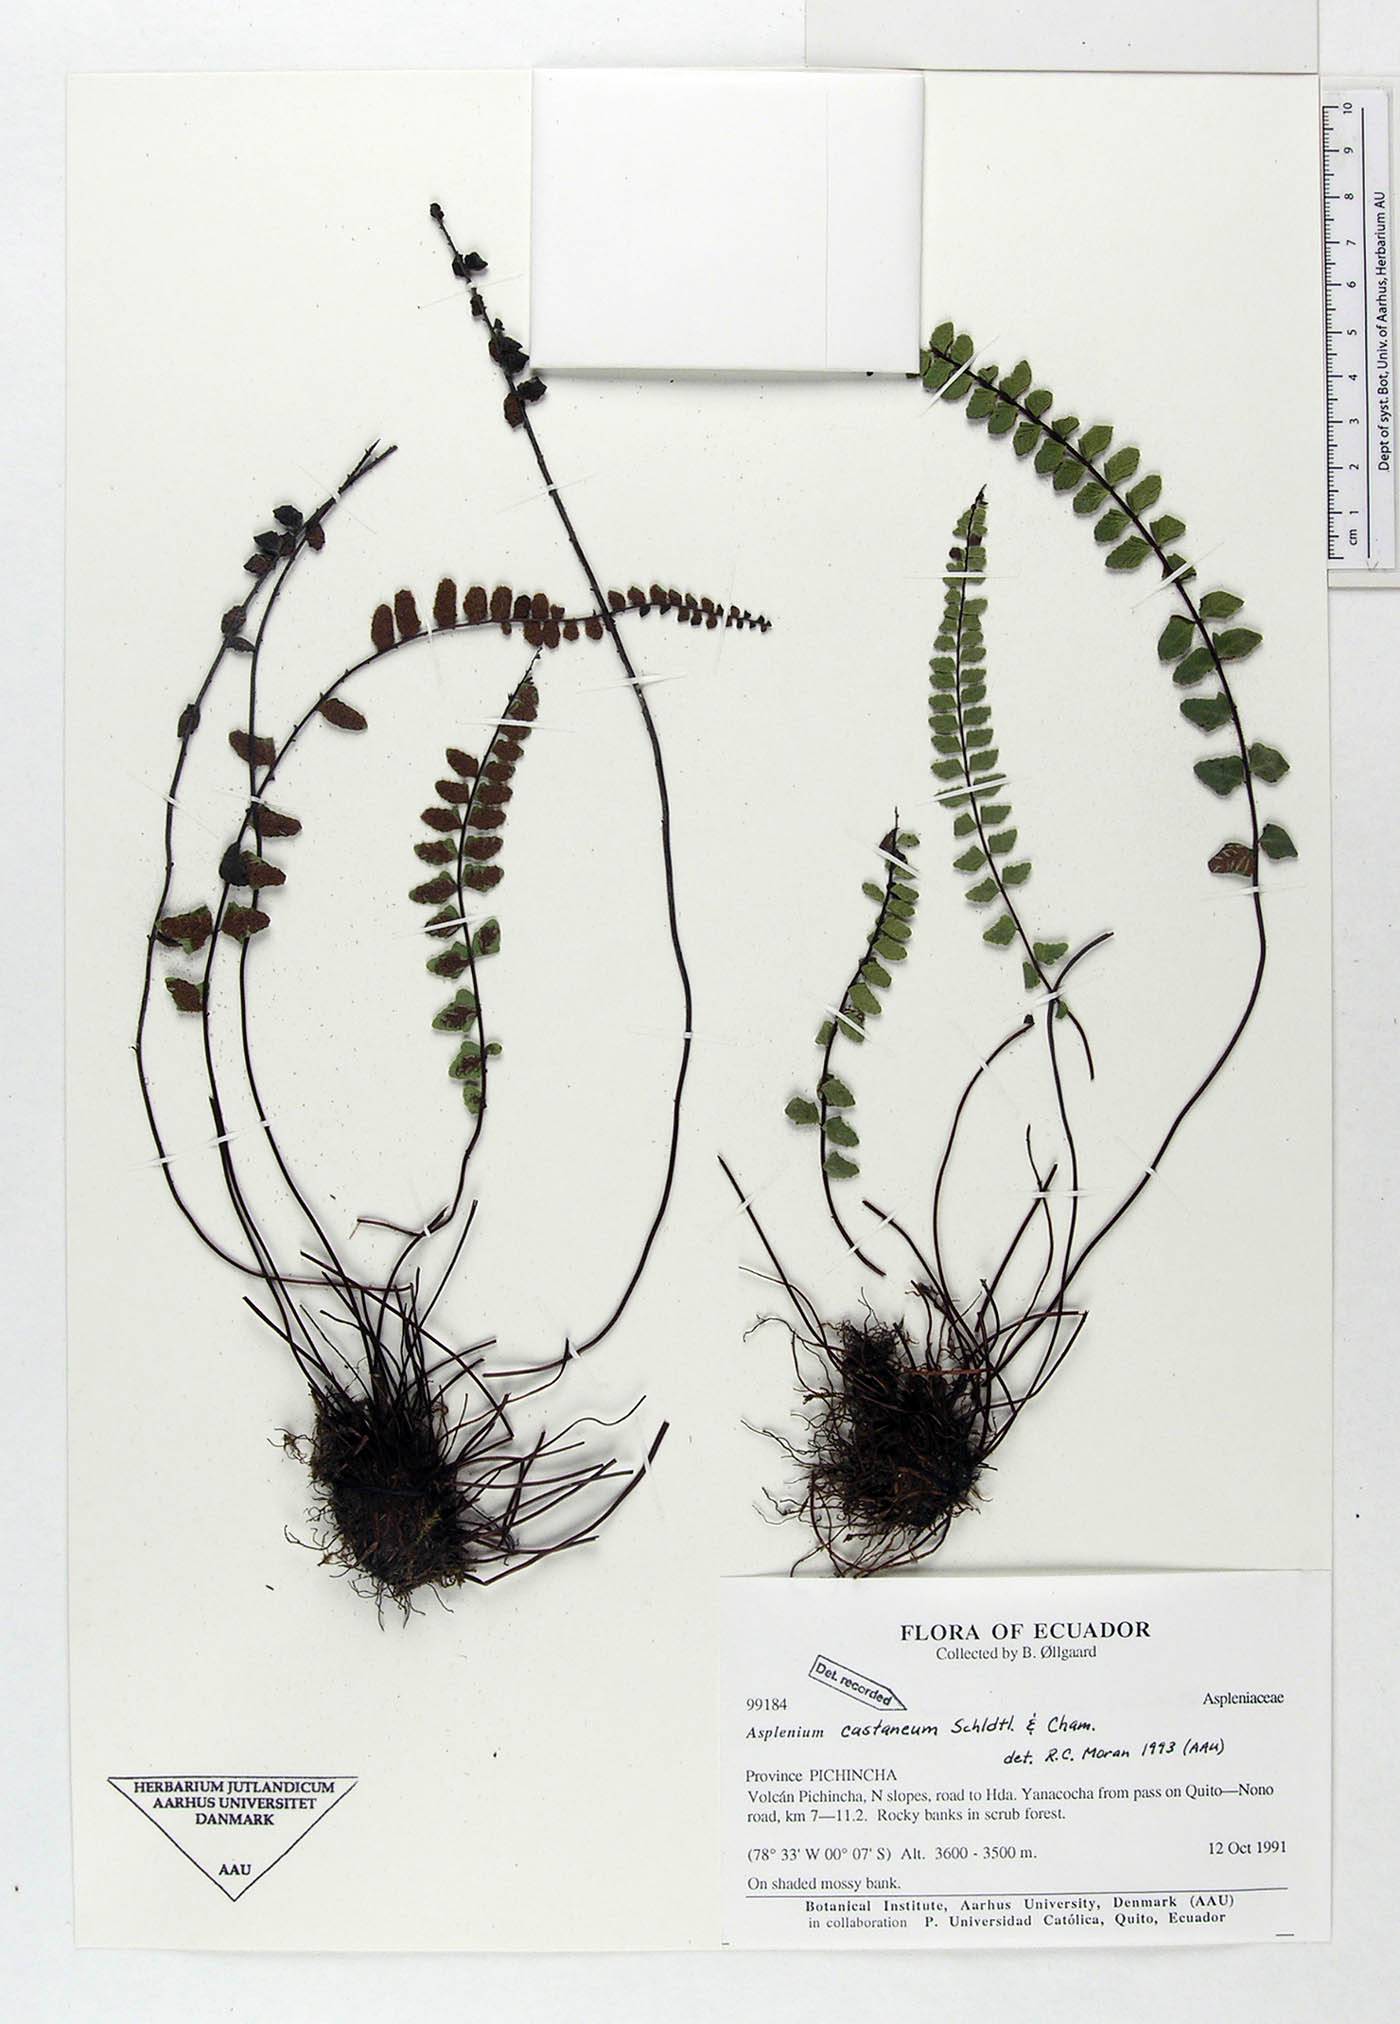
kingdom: Plantae
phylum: Tracheophyta
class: Polypodiopsida
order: Polypodiales
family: Aspleniaceae
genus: Asplenium
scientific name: Asplenium castaneum
